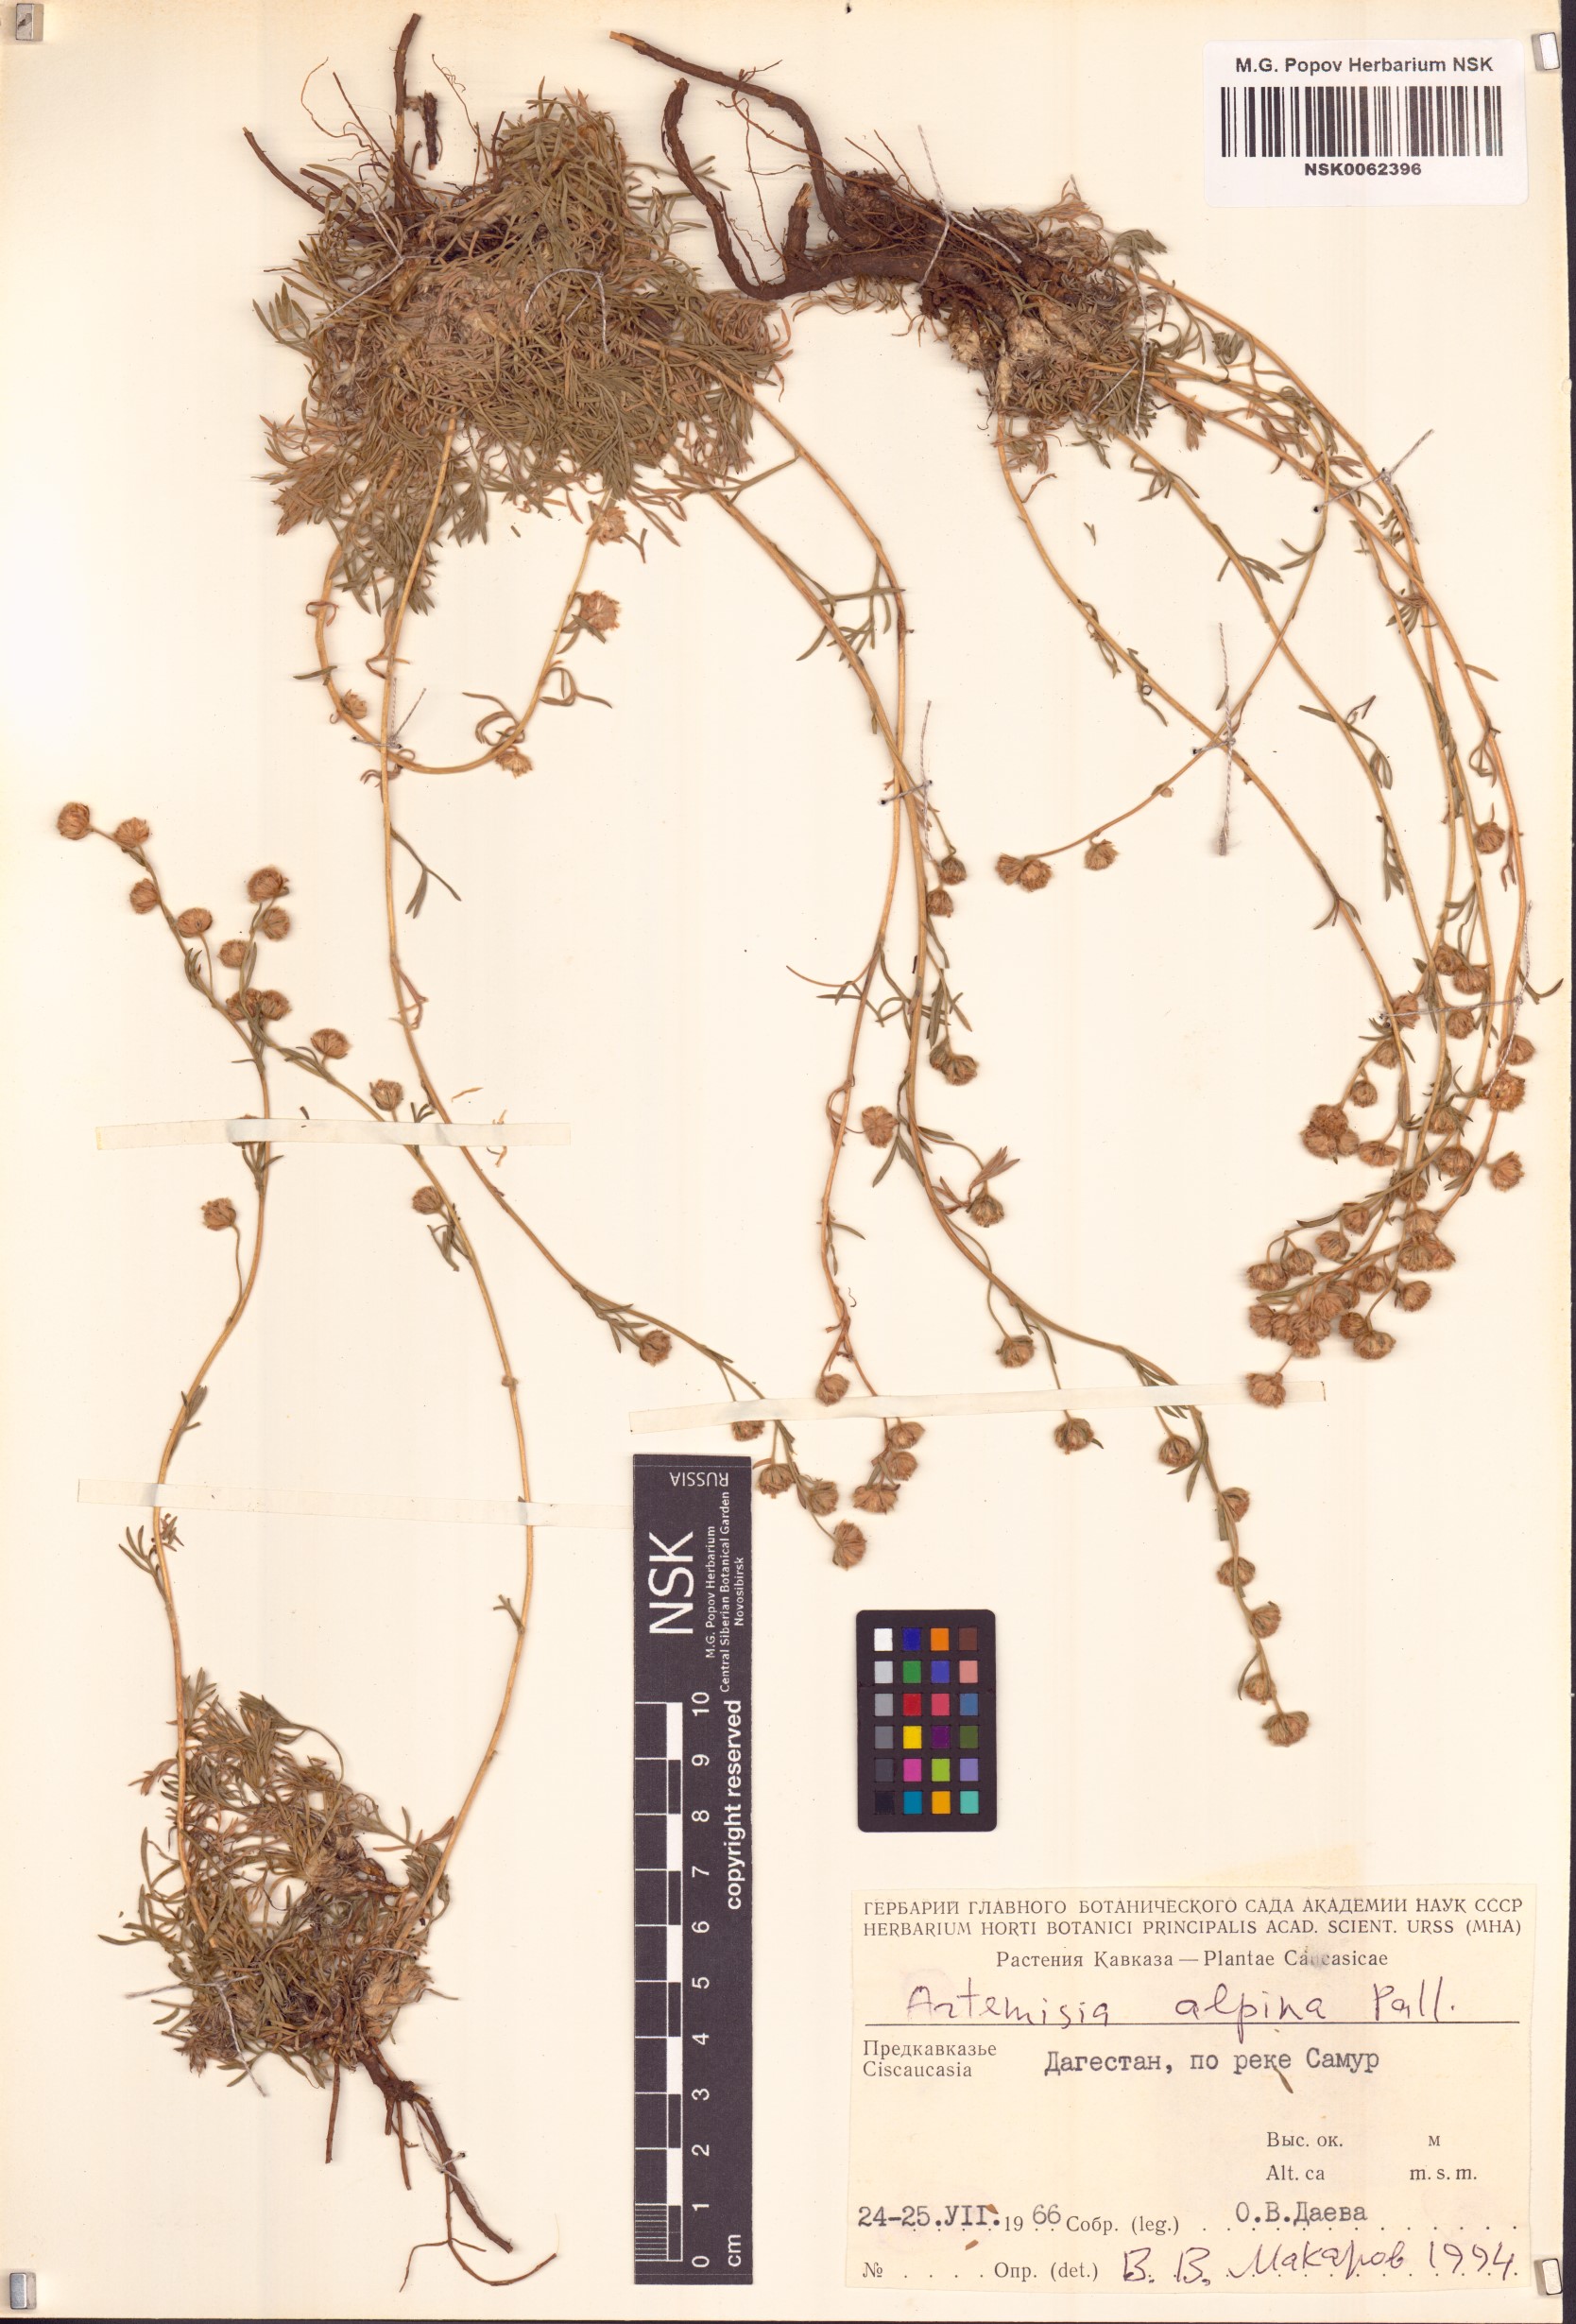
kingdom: Plantae
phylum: Tracheophyta
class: Magnoliopsida
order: Asterales
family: Asteraceae
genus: Artemisia
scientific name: Artemisia alpina
